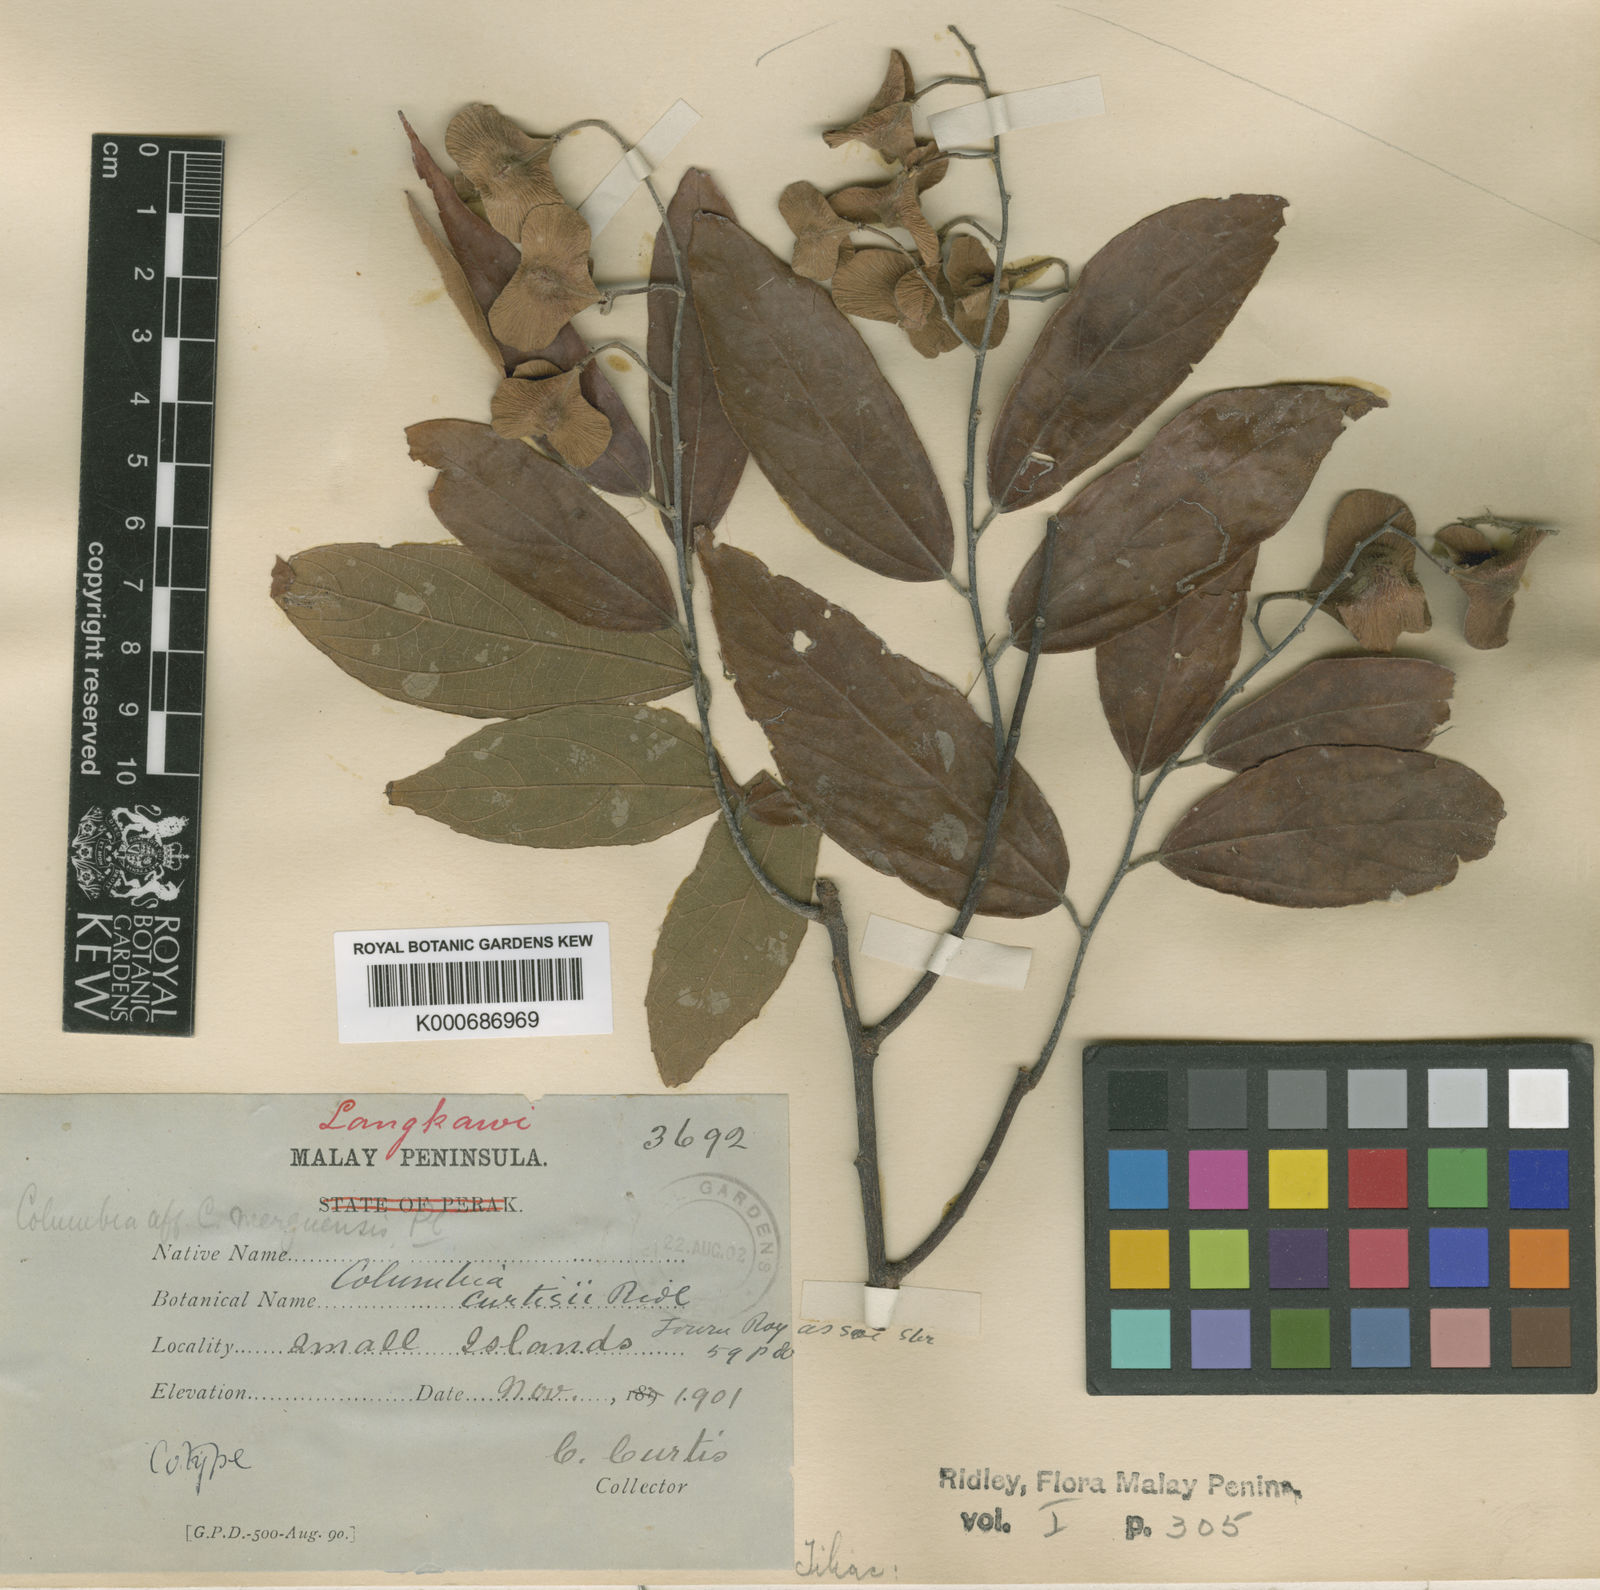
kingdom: Plantae
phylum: Tracheophyta
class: Magnoliopsida
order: Malvales
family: Malvaceae
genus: Colona
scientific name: Colona merguensis
